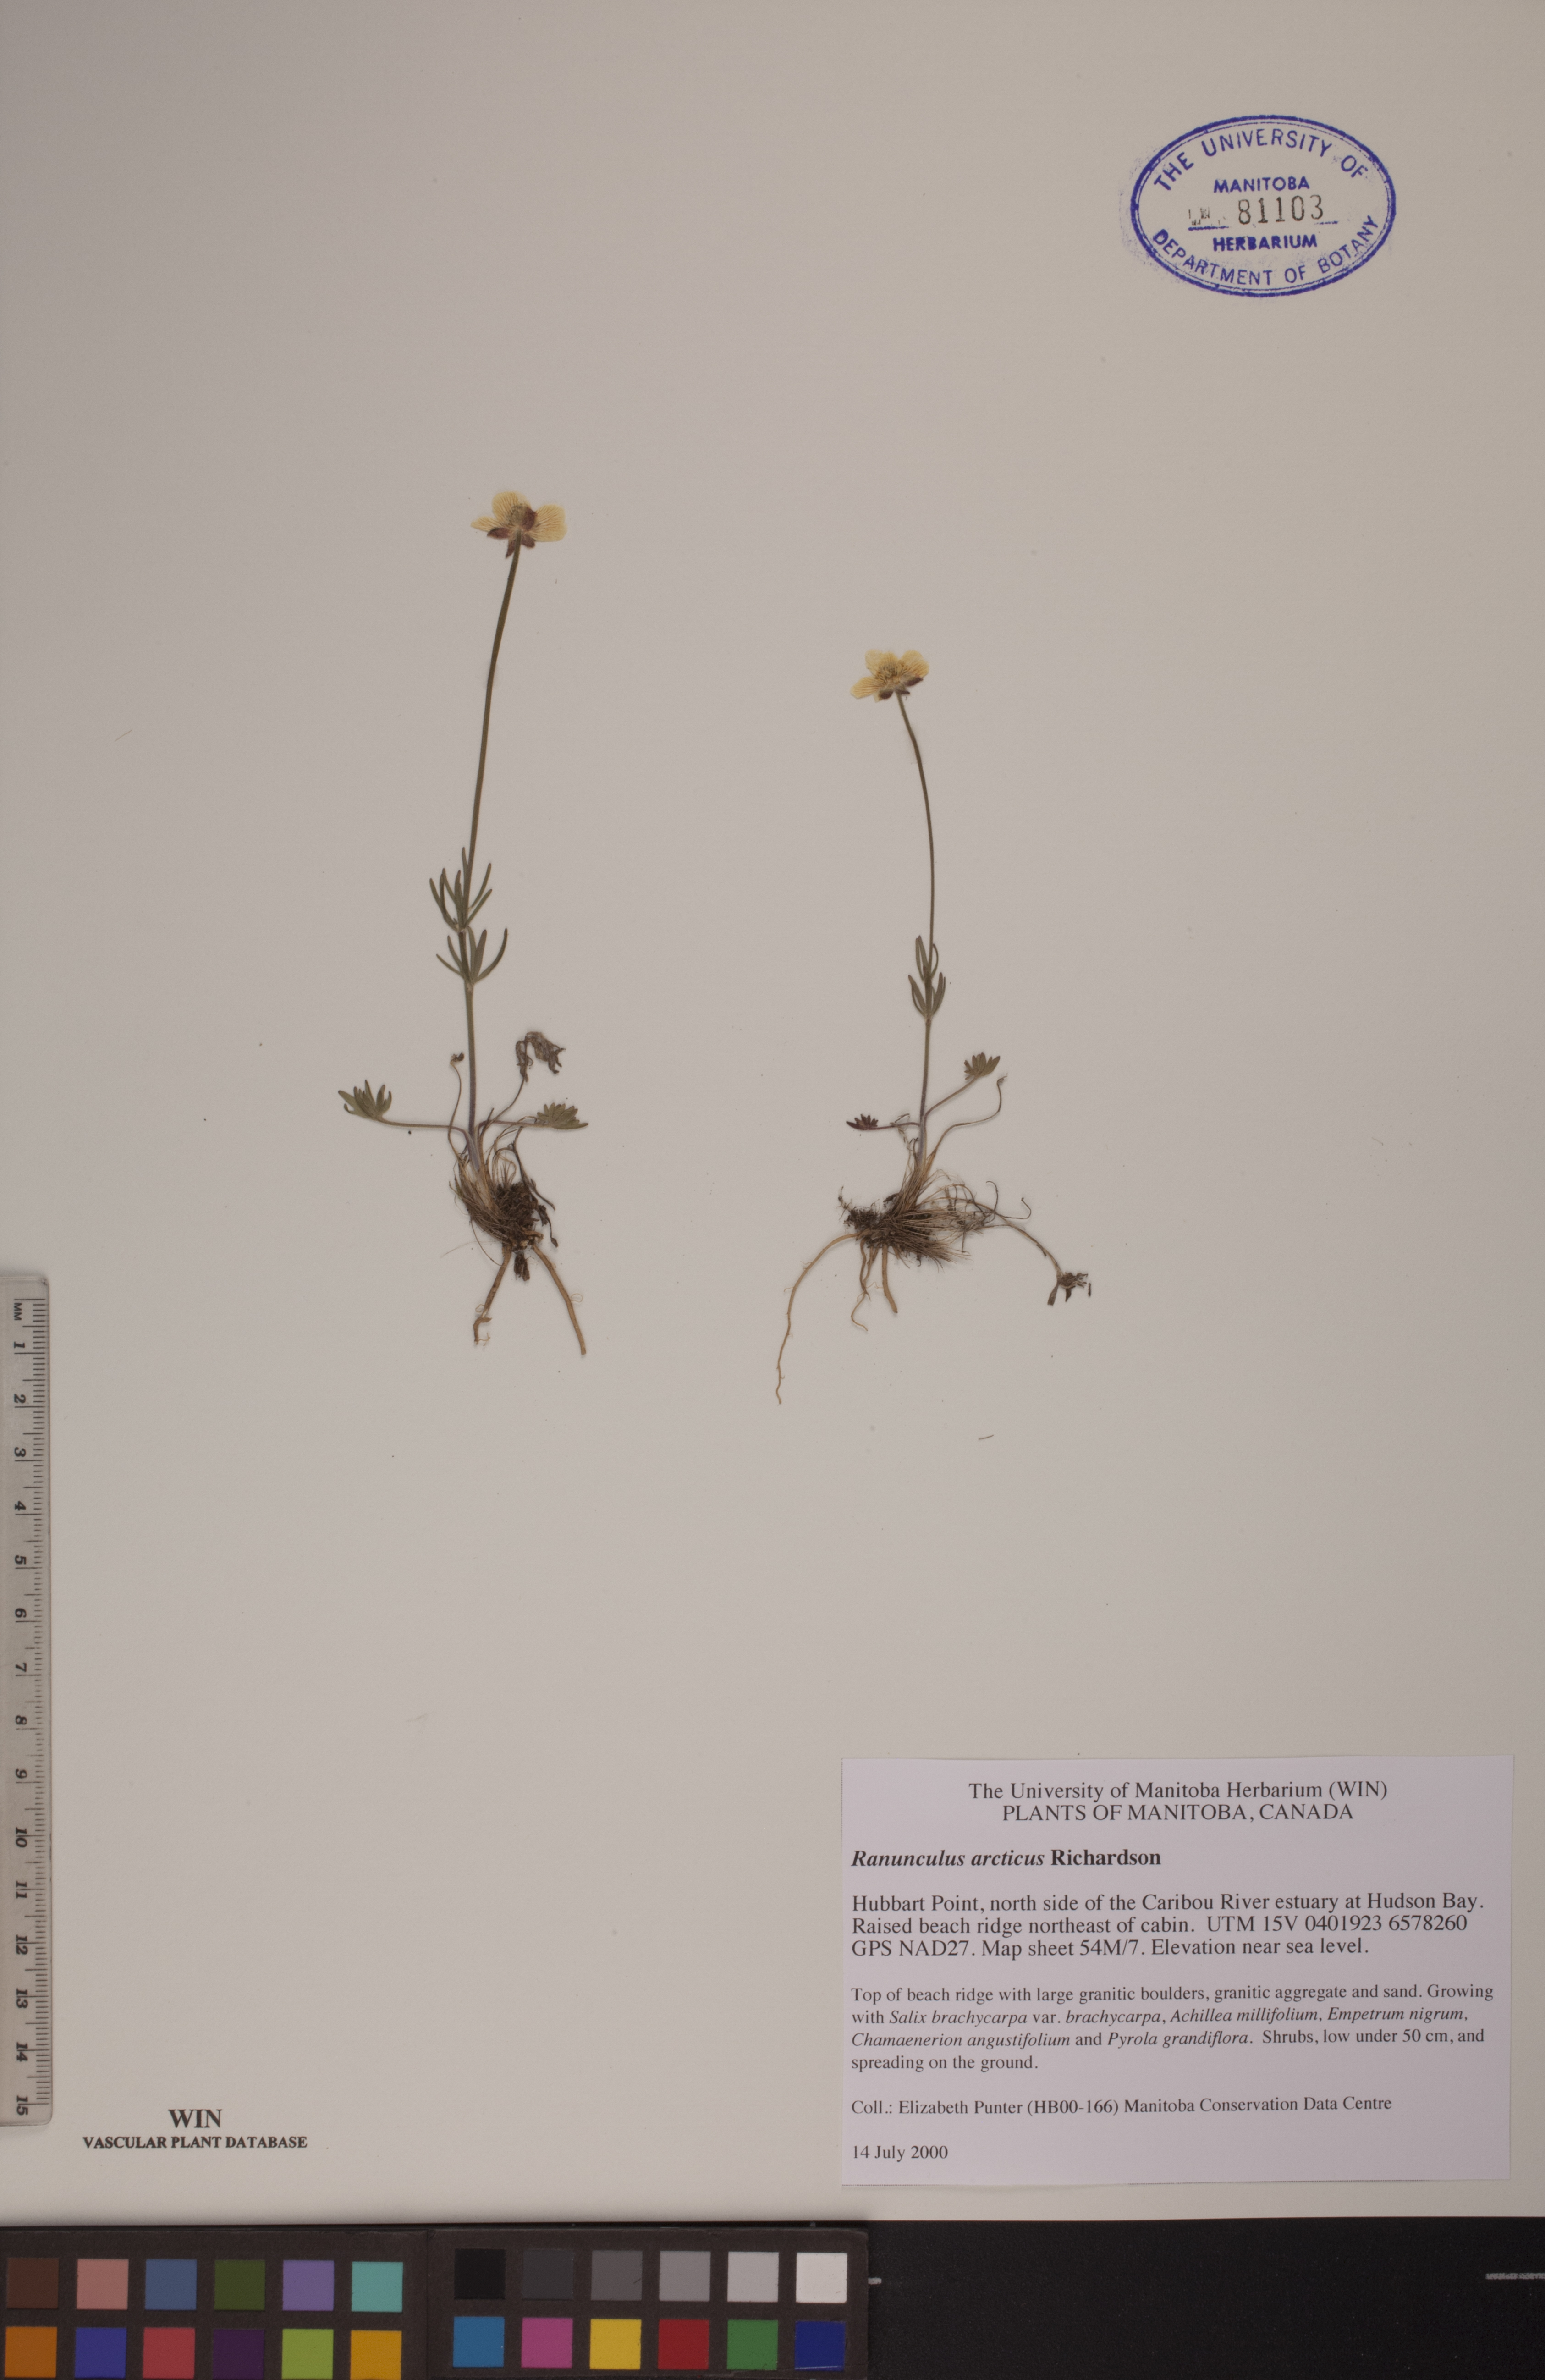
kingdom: Plantae
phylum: Tracheophyta
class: Magnoliopsida
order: Ranunculales
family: Ranunculaceae
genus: Ranunculus
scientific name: Ranunculus arcticus
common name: Bird's-foot buttercup
